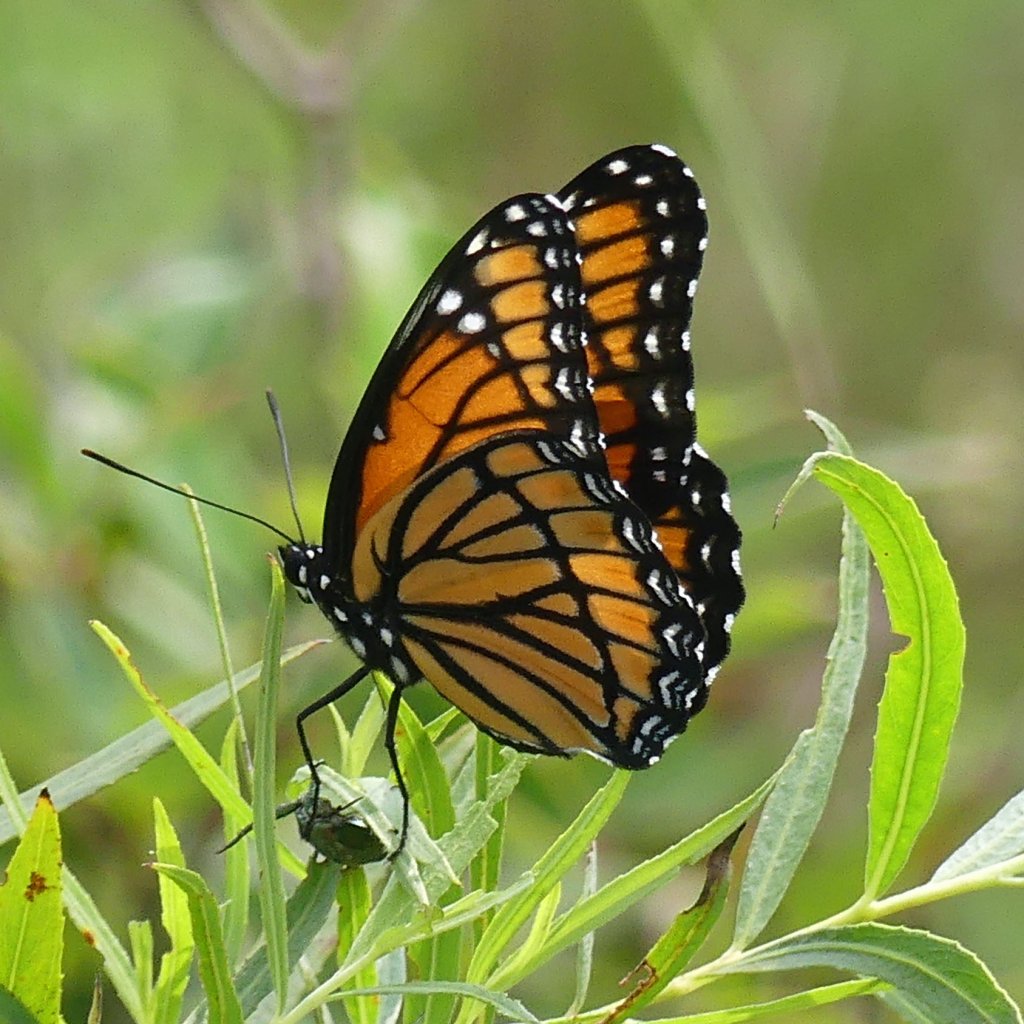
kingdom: Animalia
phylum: Arthropoda
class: Insecta
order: Lepidoptera
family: Nymphalidae
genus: Limenitis
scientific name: Limenitis archippus
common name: Viceroy
